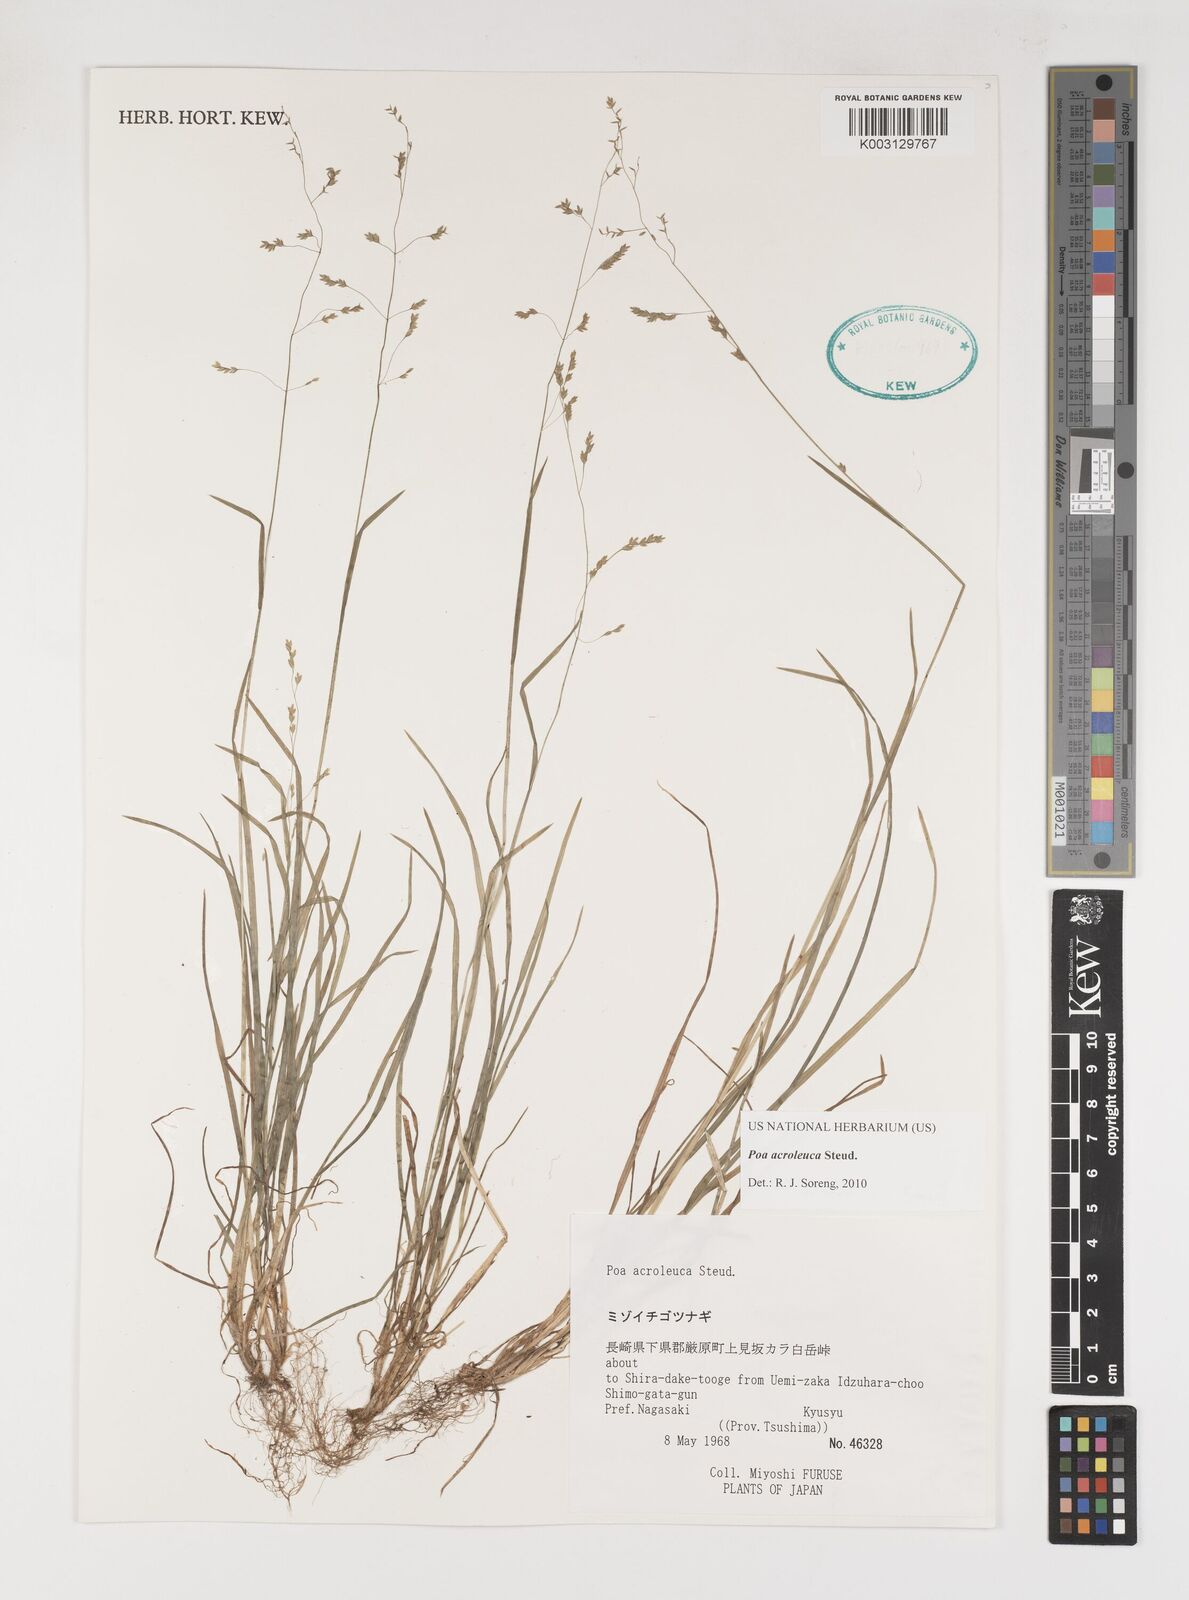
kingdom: Plantae
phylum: Tracheophyta
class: Liliopsida
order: Poales
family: Poaceae
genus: Poa
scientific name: Poa acroleuca
